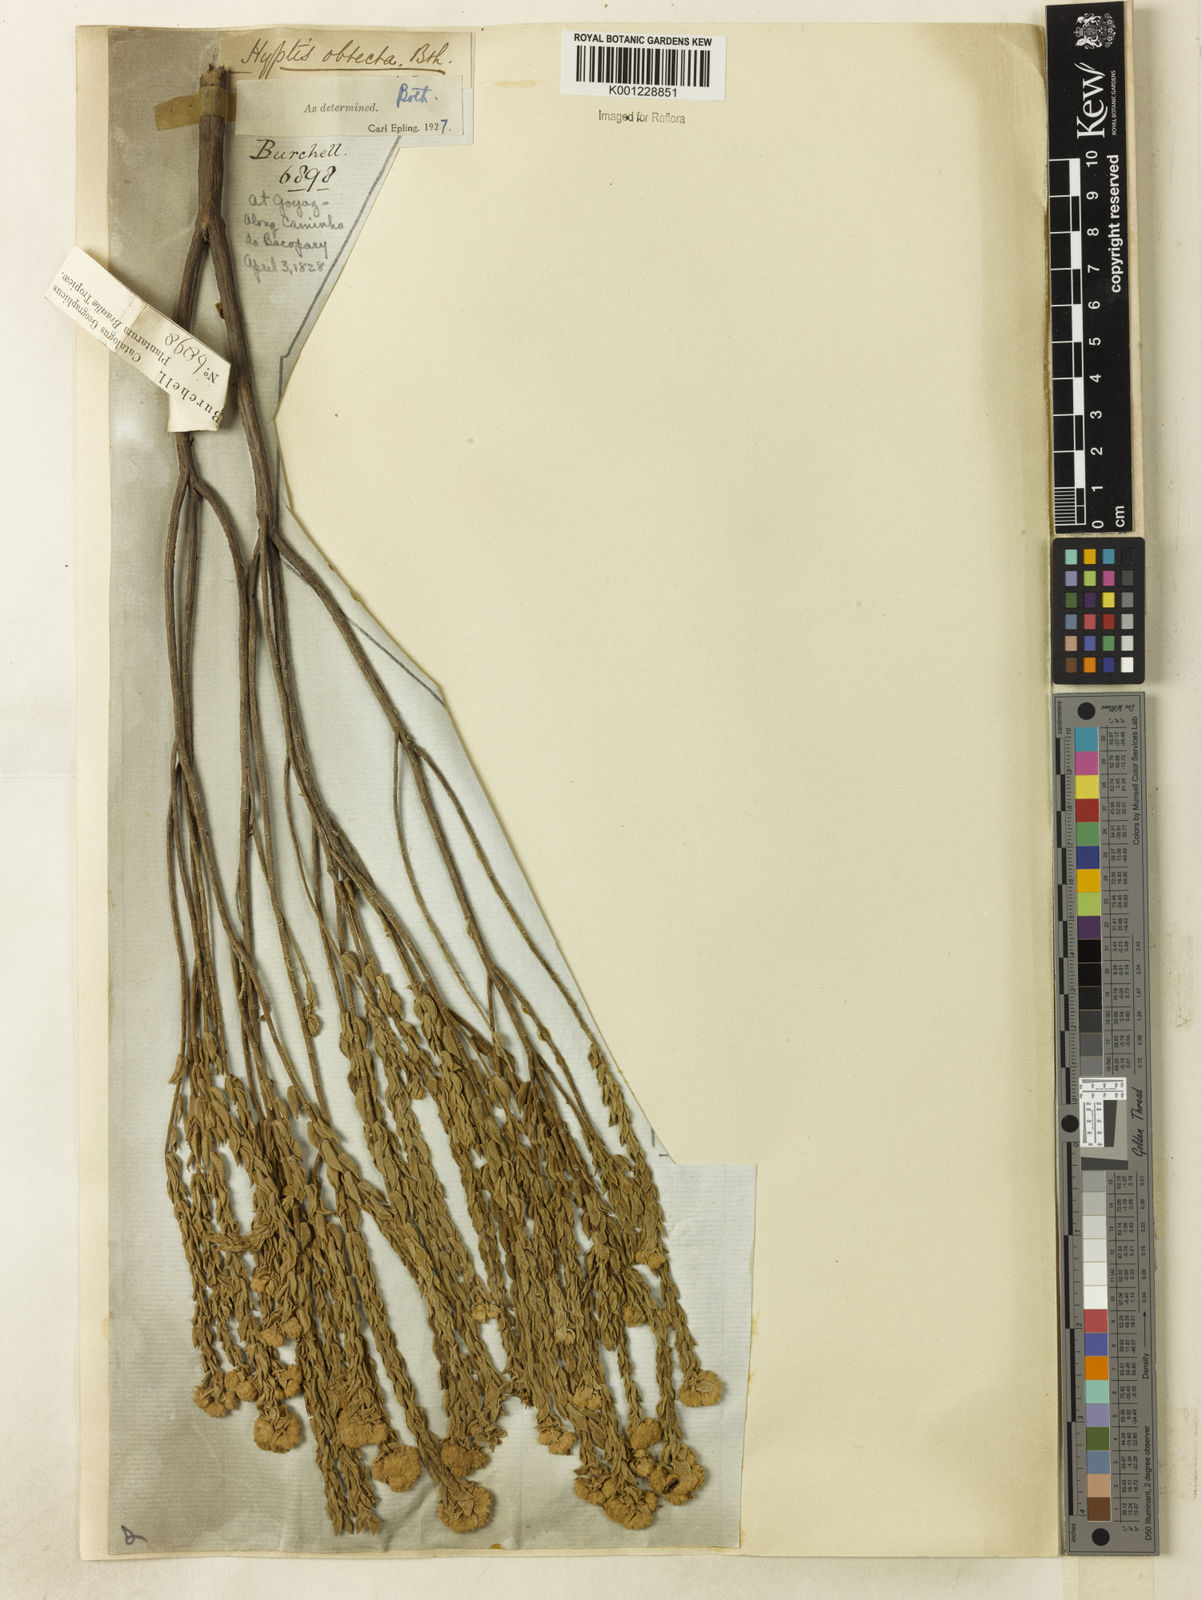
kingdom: Plantae
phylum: Tracheophyta
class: Magnoliopsida
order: Lamiales
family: Lamiaceae
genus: Hyptis
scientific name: Hyptis obtecta
